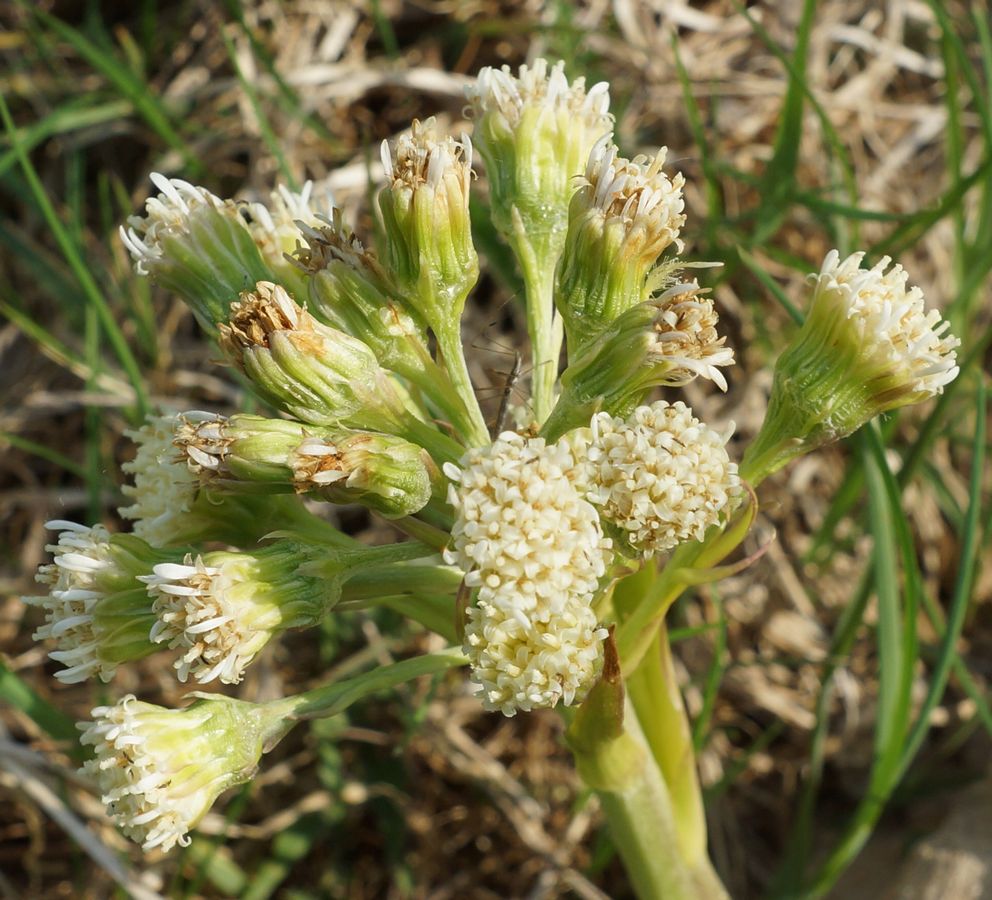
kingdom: Plantae
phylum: Tracheophyta
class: Magnoliopsida
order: Asterales
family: Asteraceae
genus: Petasites
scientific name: Petasites spurius
